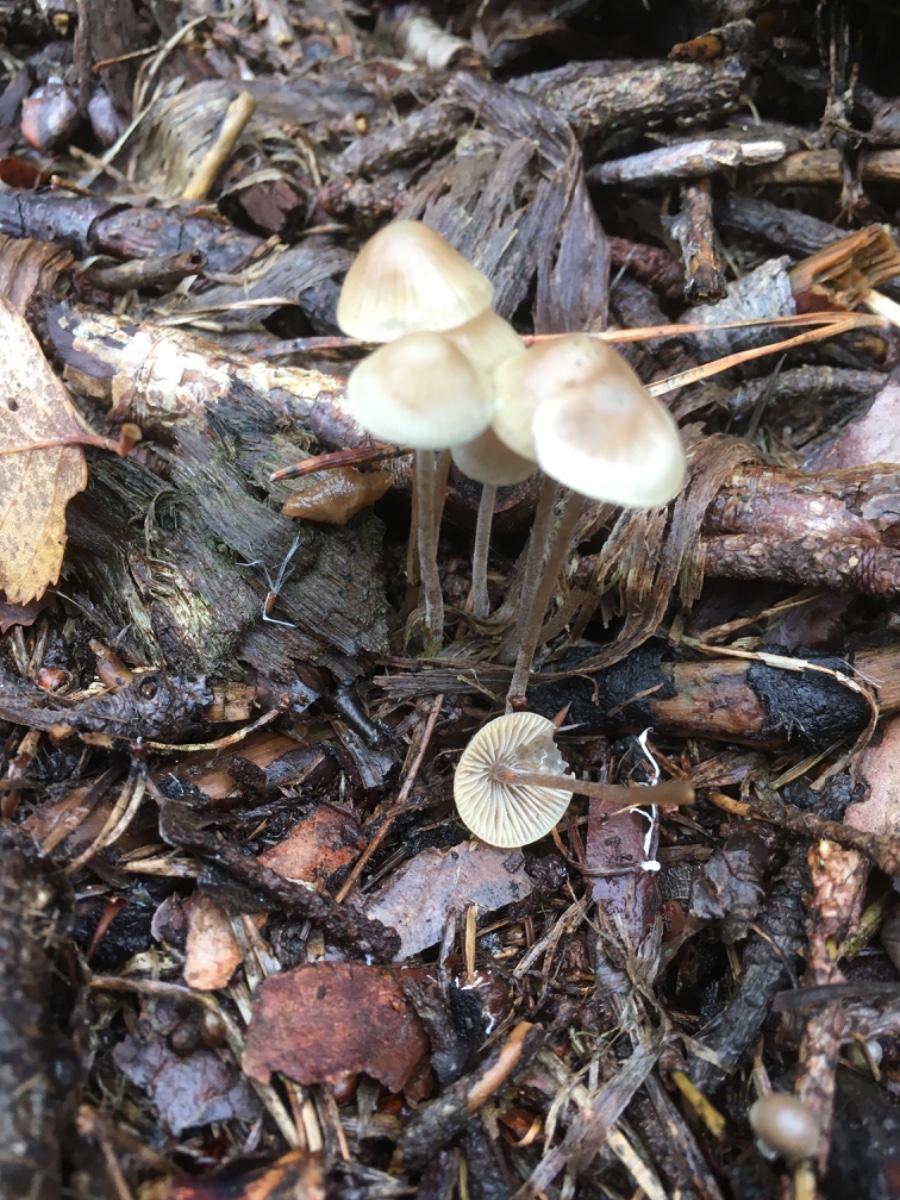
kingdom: Fungi
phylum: Basidiomycota
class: Agaricomycetes
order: Agaricales
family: Mycenaceae
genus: Mycena
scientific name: Mycena amicta
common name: iris-huesvamp
